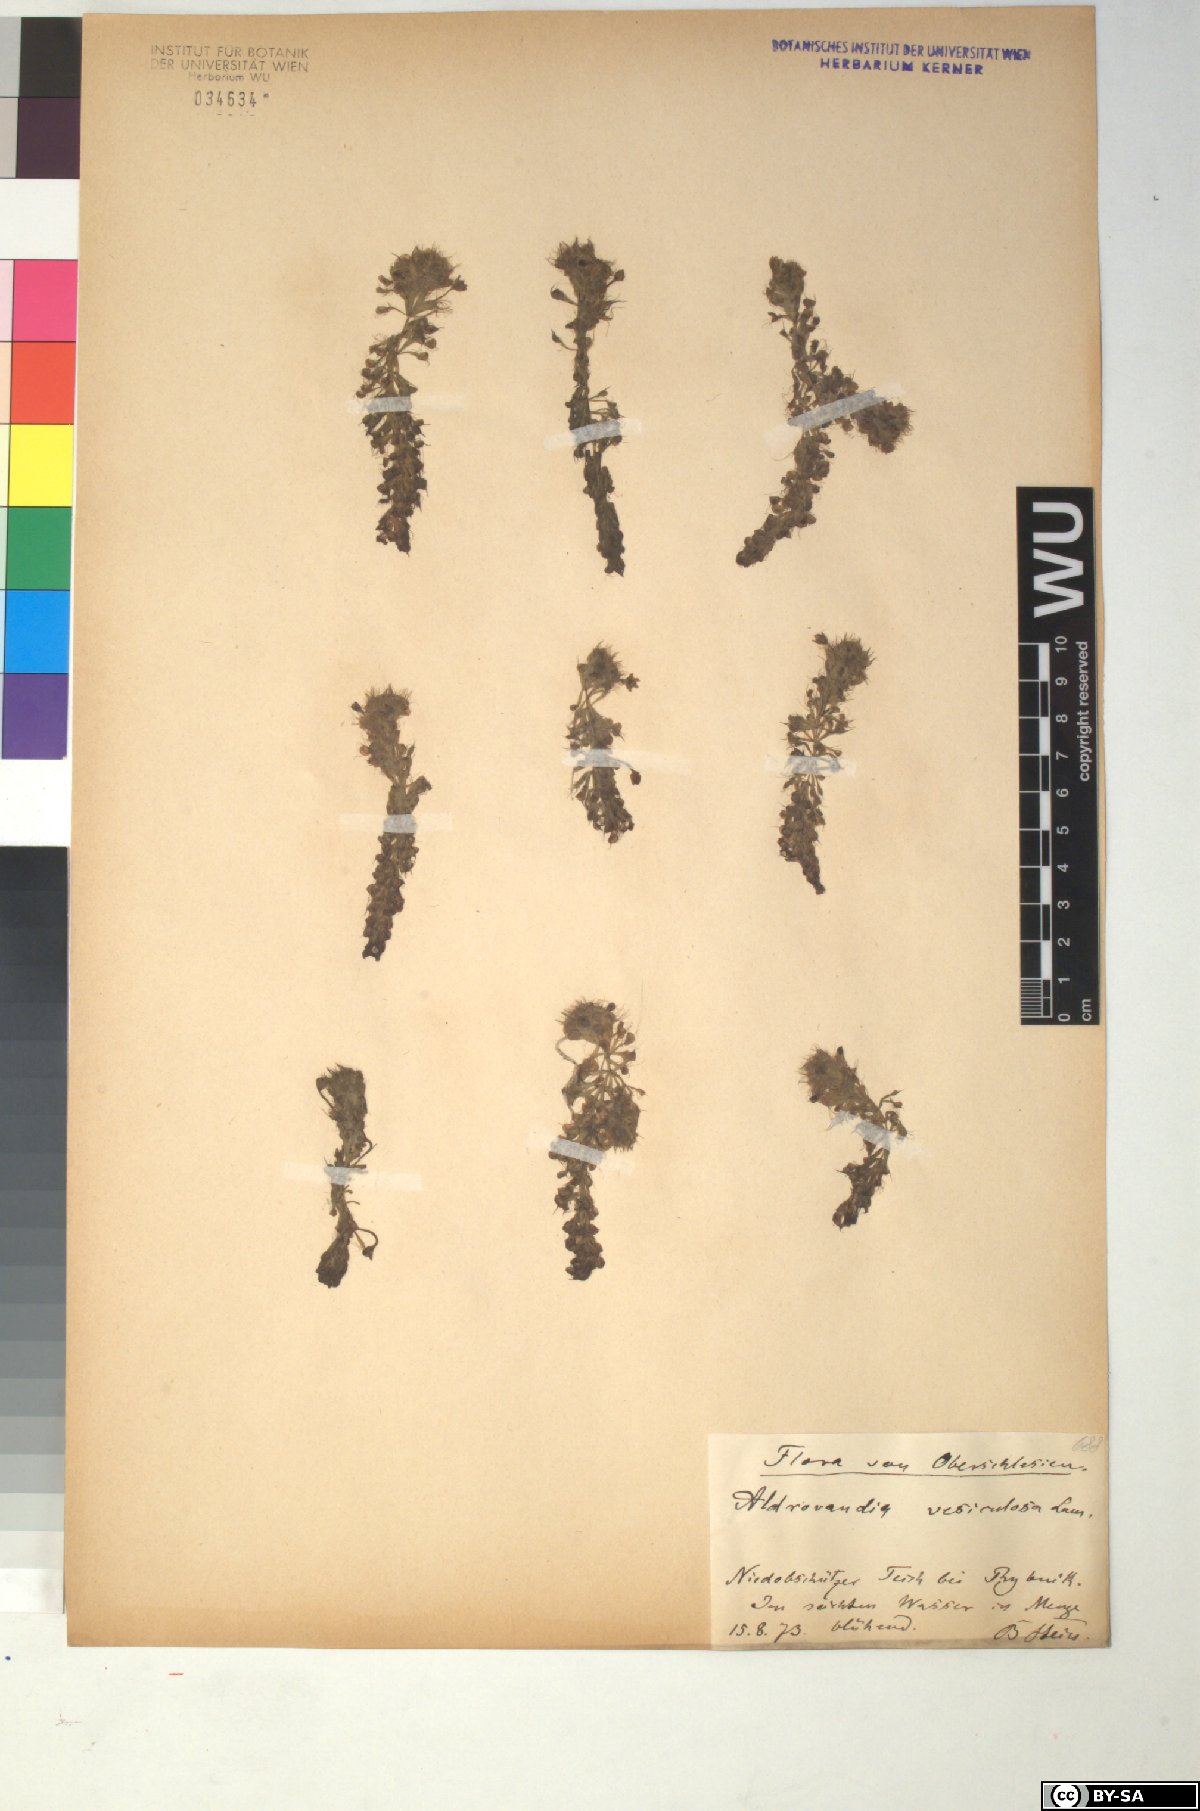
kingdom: Plantae
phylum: Tracheophyta
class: Magnoliopsida
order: Caryophyllales
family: Droseraceae
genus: Aldrovanda
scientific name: Aldrovanda vesiculosa
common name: Waterwheel plant
